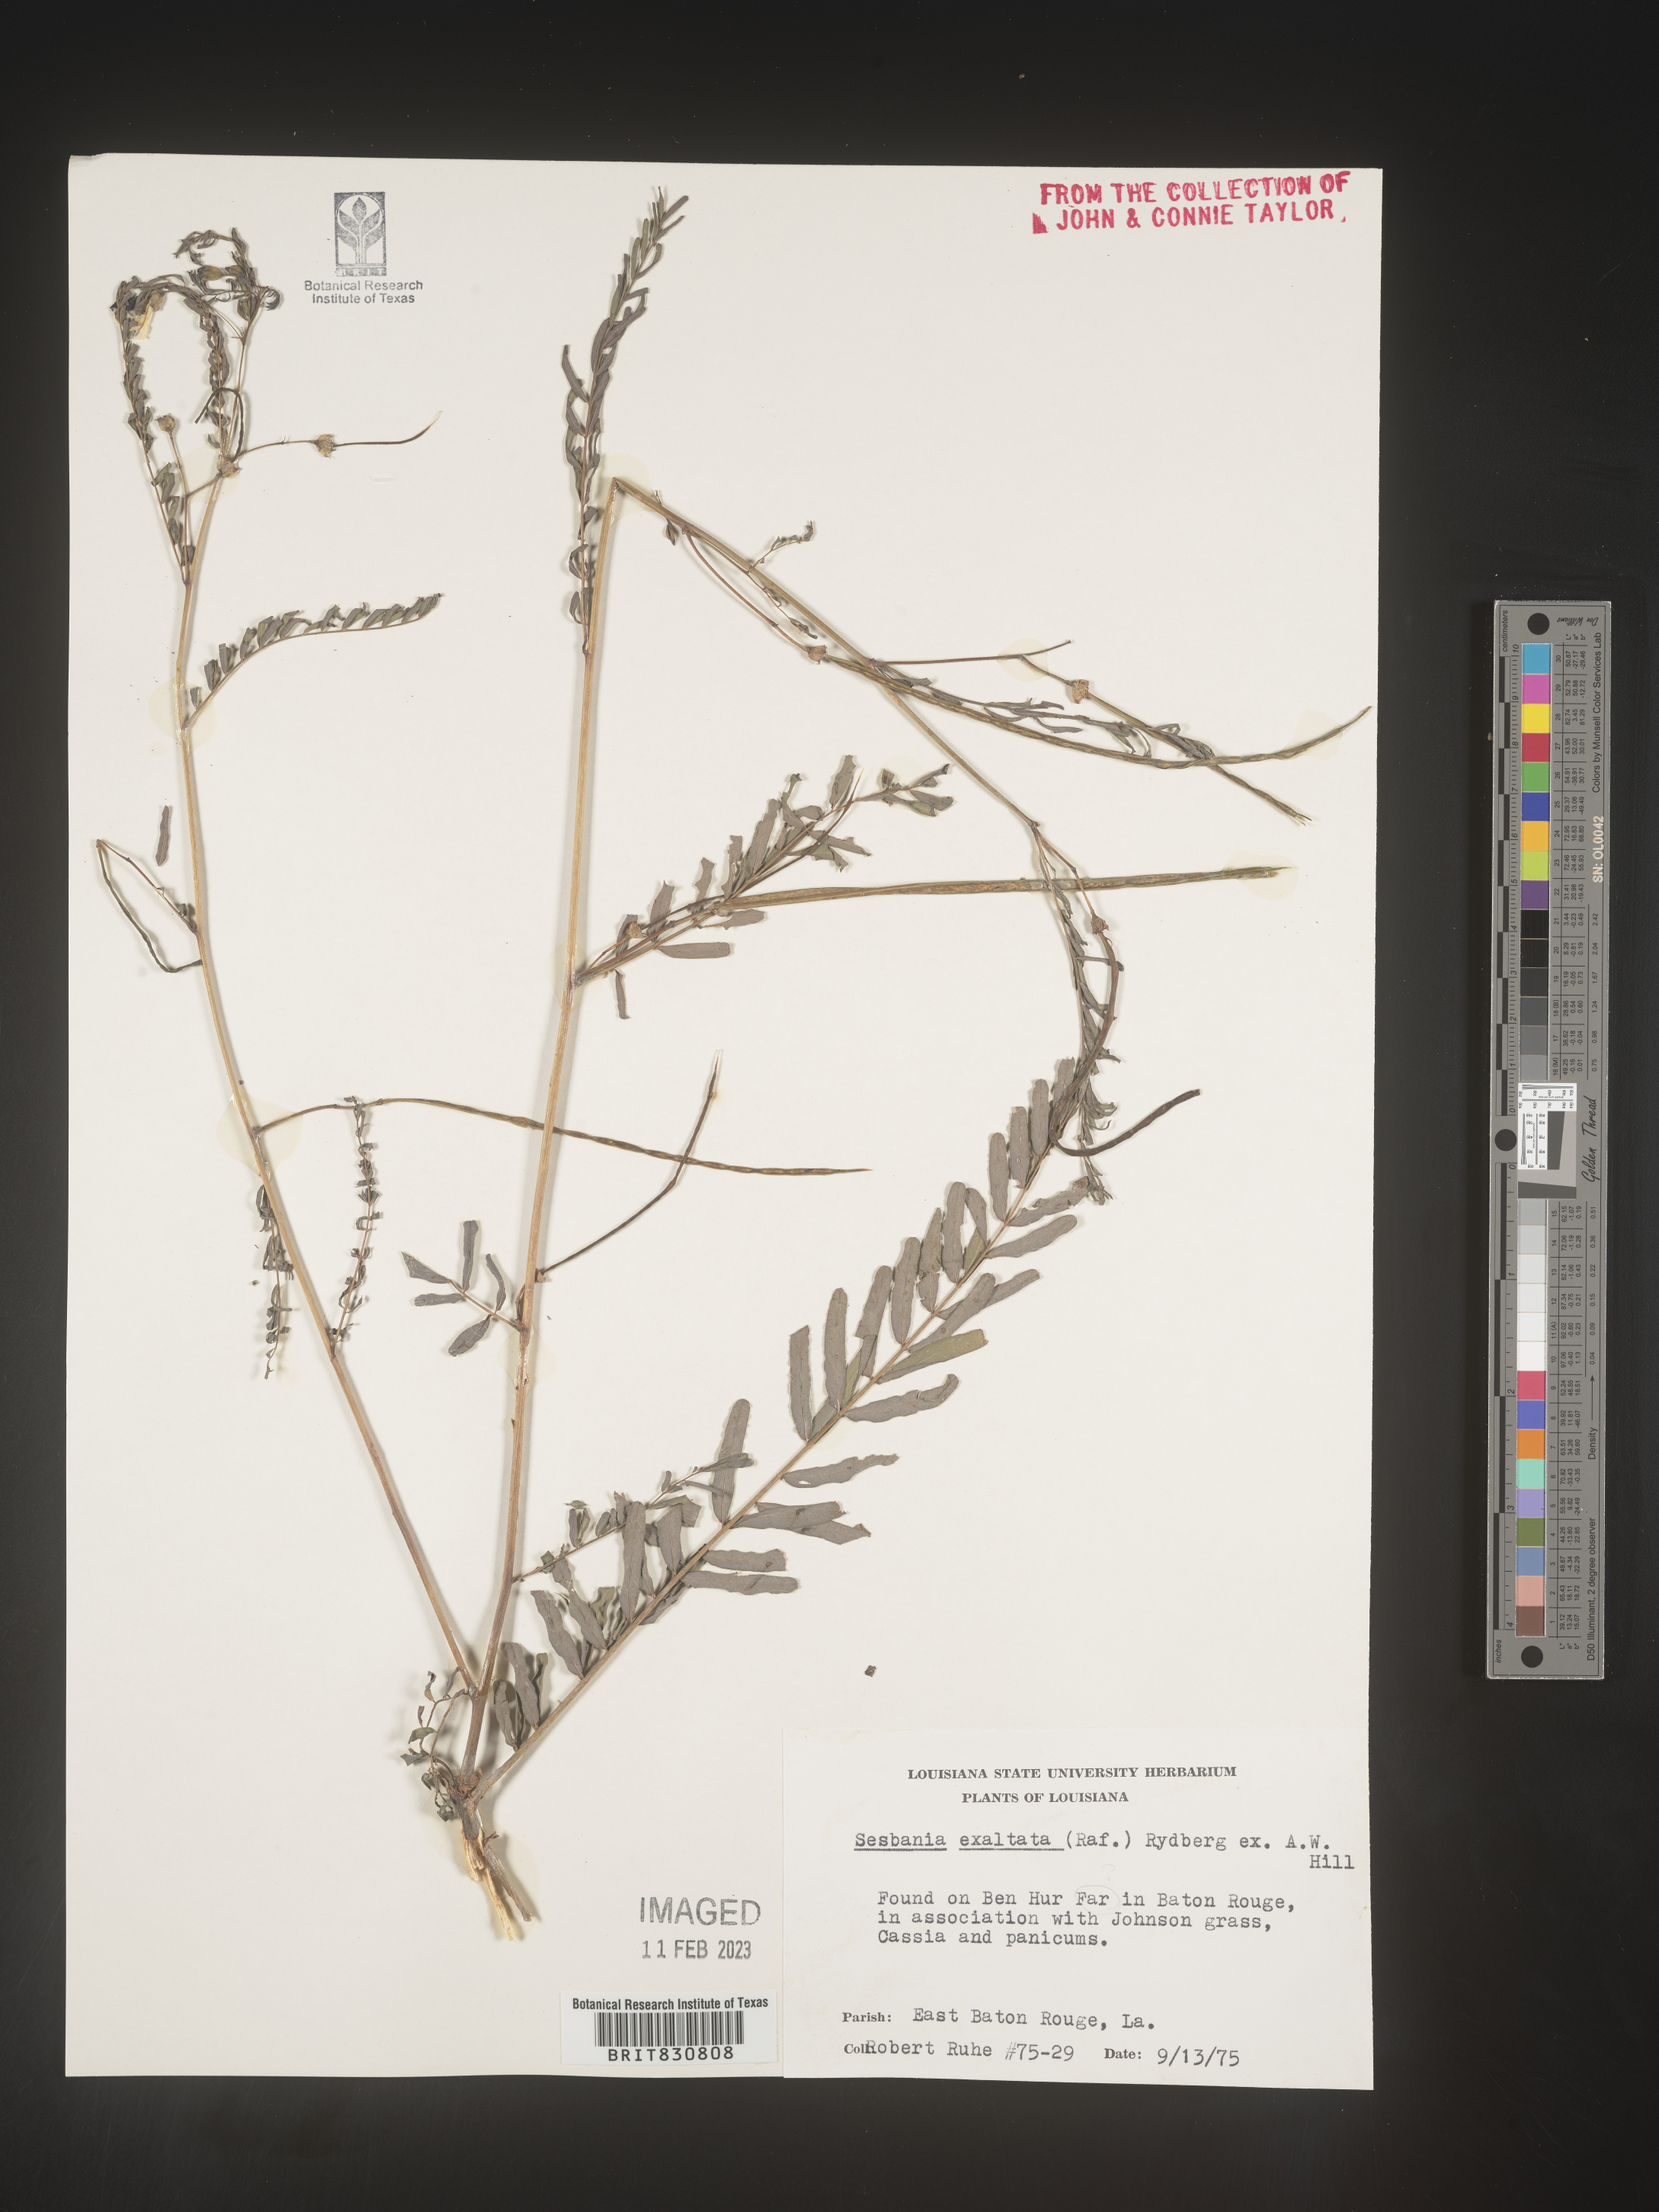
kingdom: Plantae
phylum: Tracheophyta
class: Magnoliopsida
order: Fabales
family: Fabaceae
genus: Sesbania
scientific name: Sesbania herbacea
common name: Bigpod sesbania
